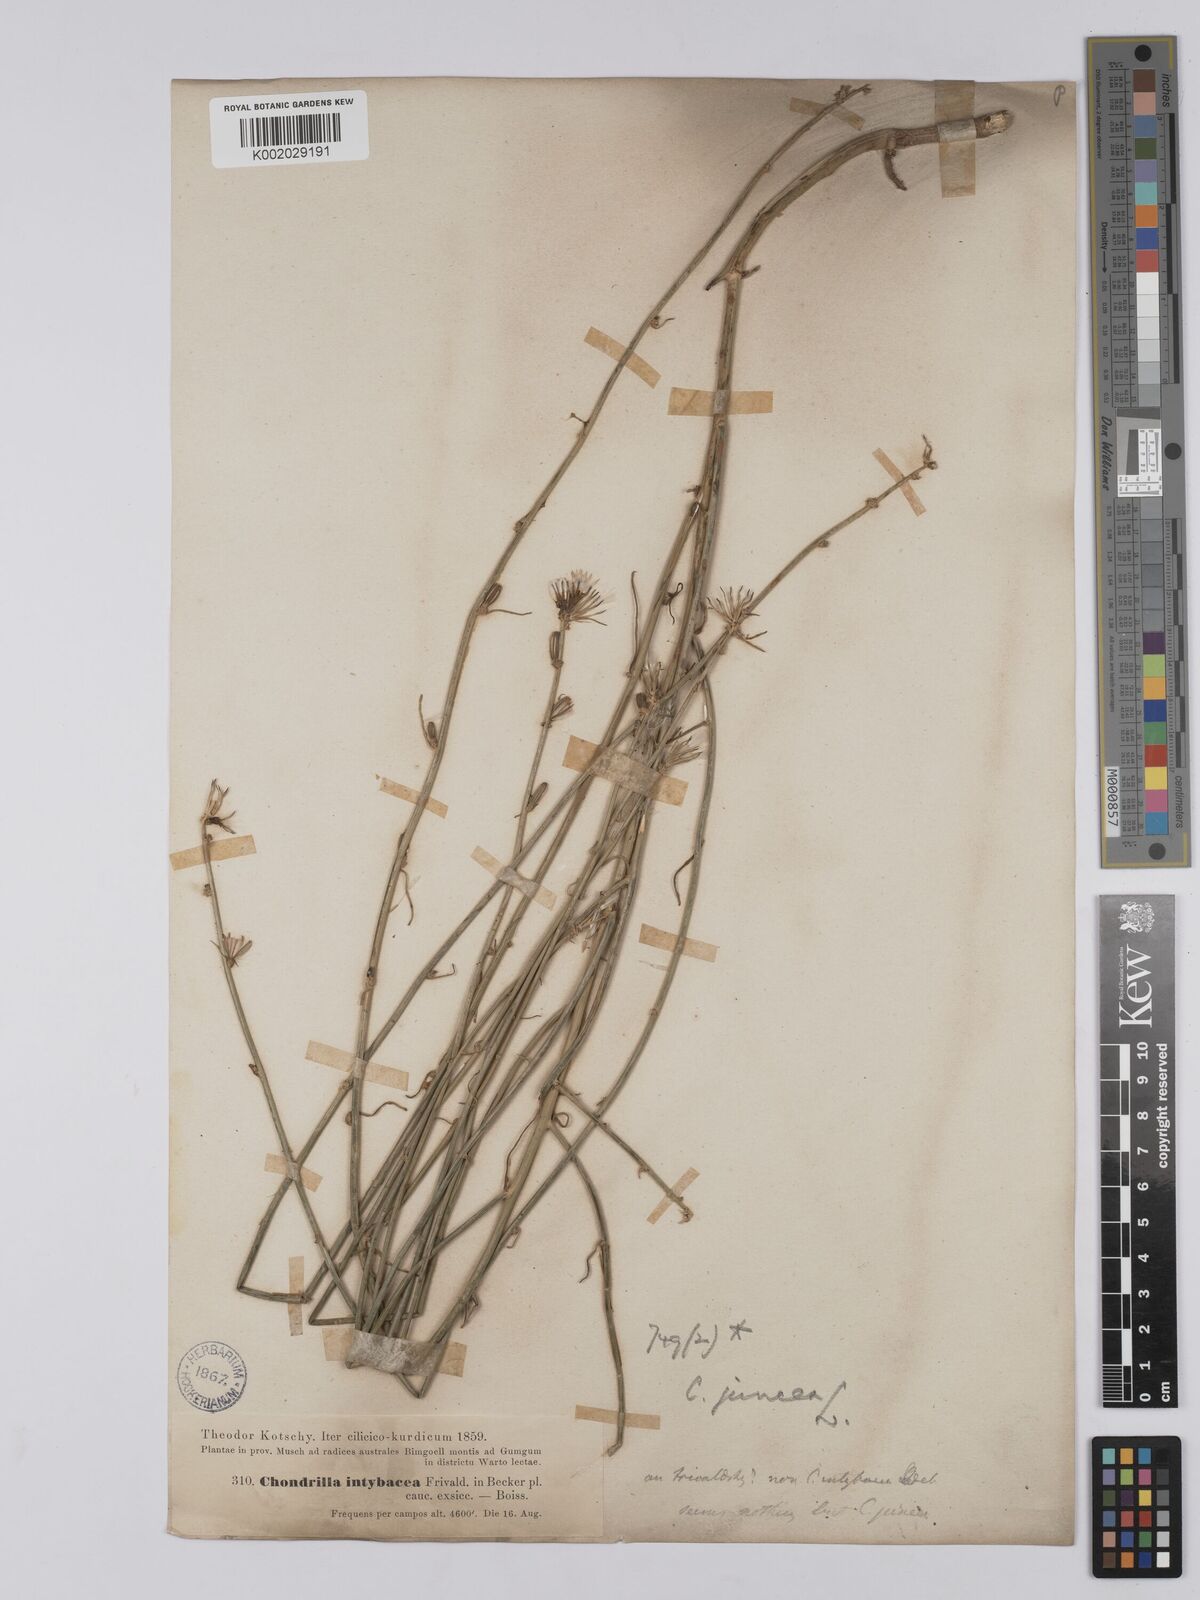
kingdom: Plantae
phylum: Tracheophyta
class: Magnoliopsida
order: Asterales
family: Asteraceae
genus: Chondrilla
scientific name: Chondrilla juncea
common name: Skeleton weed
